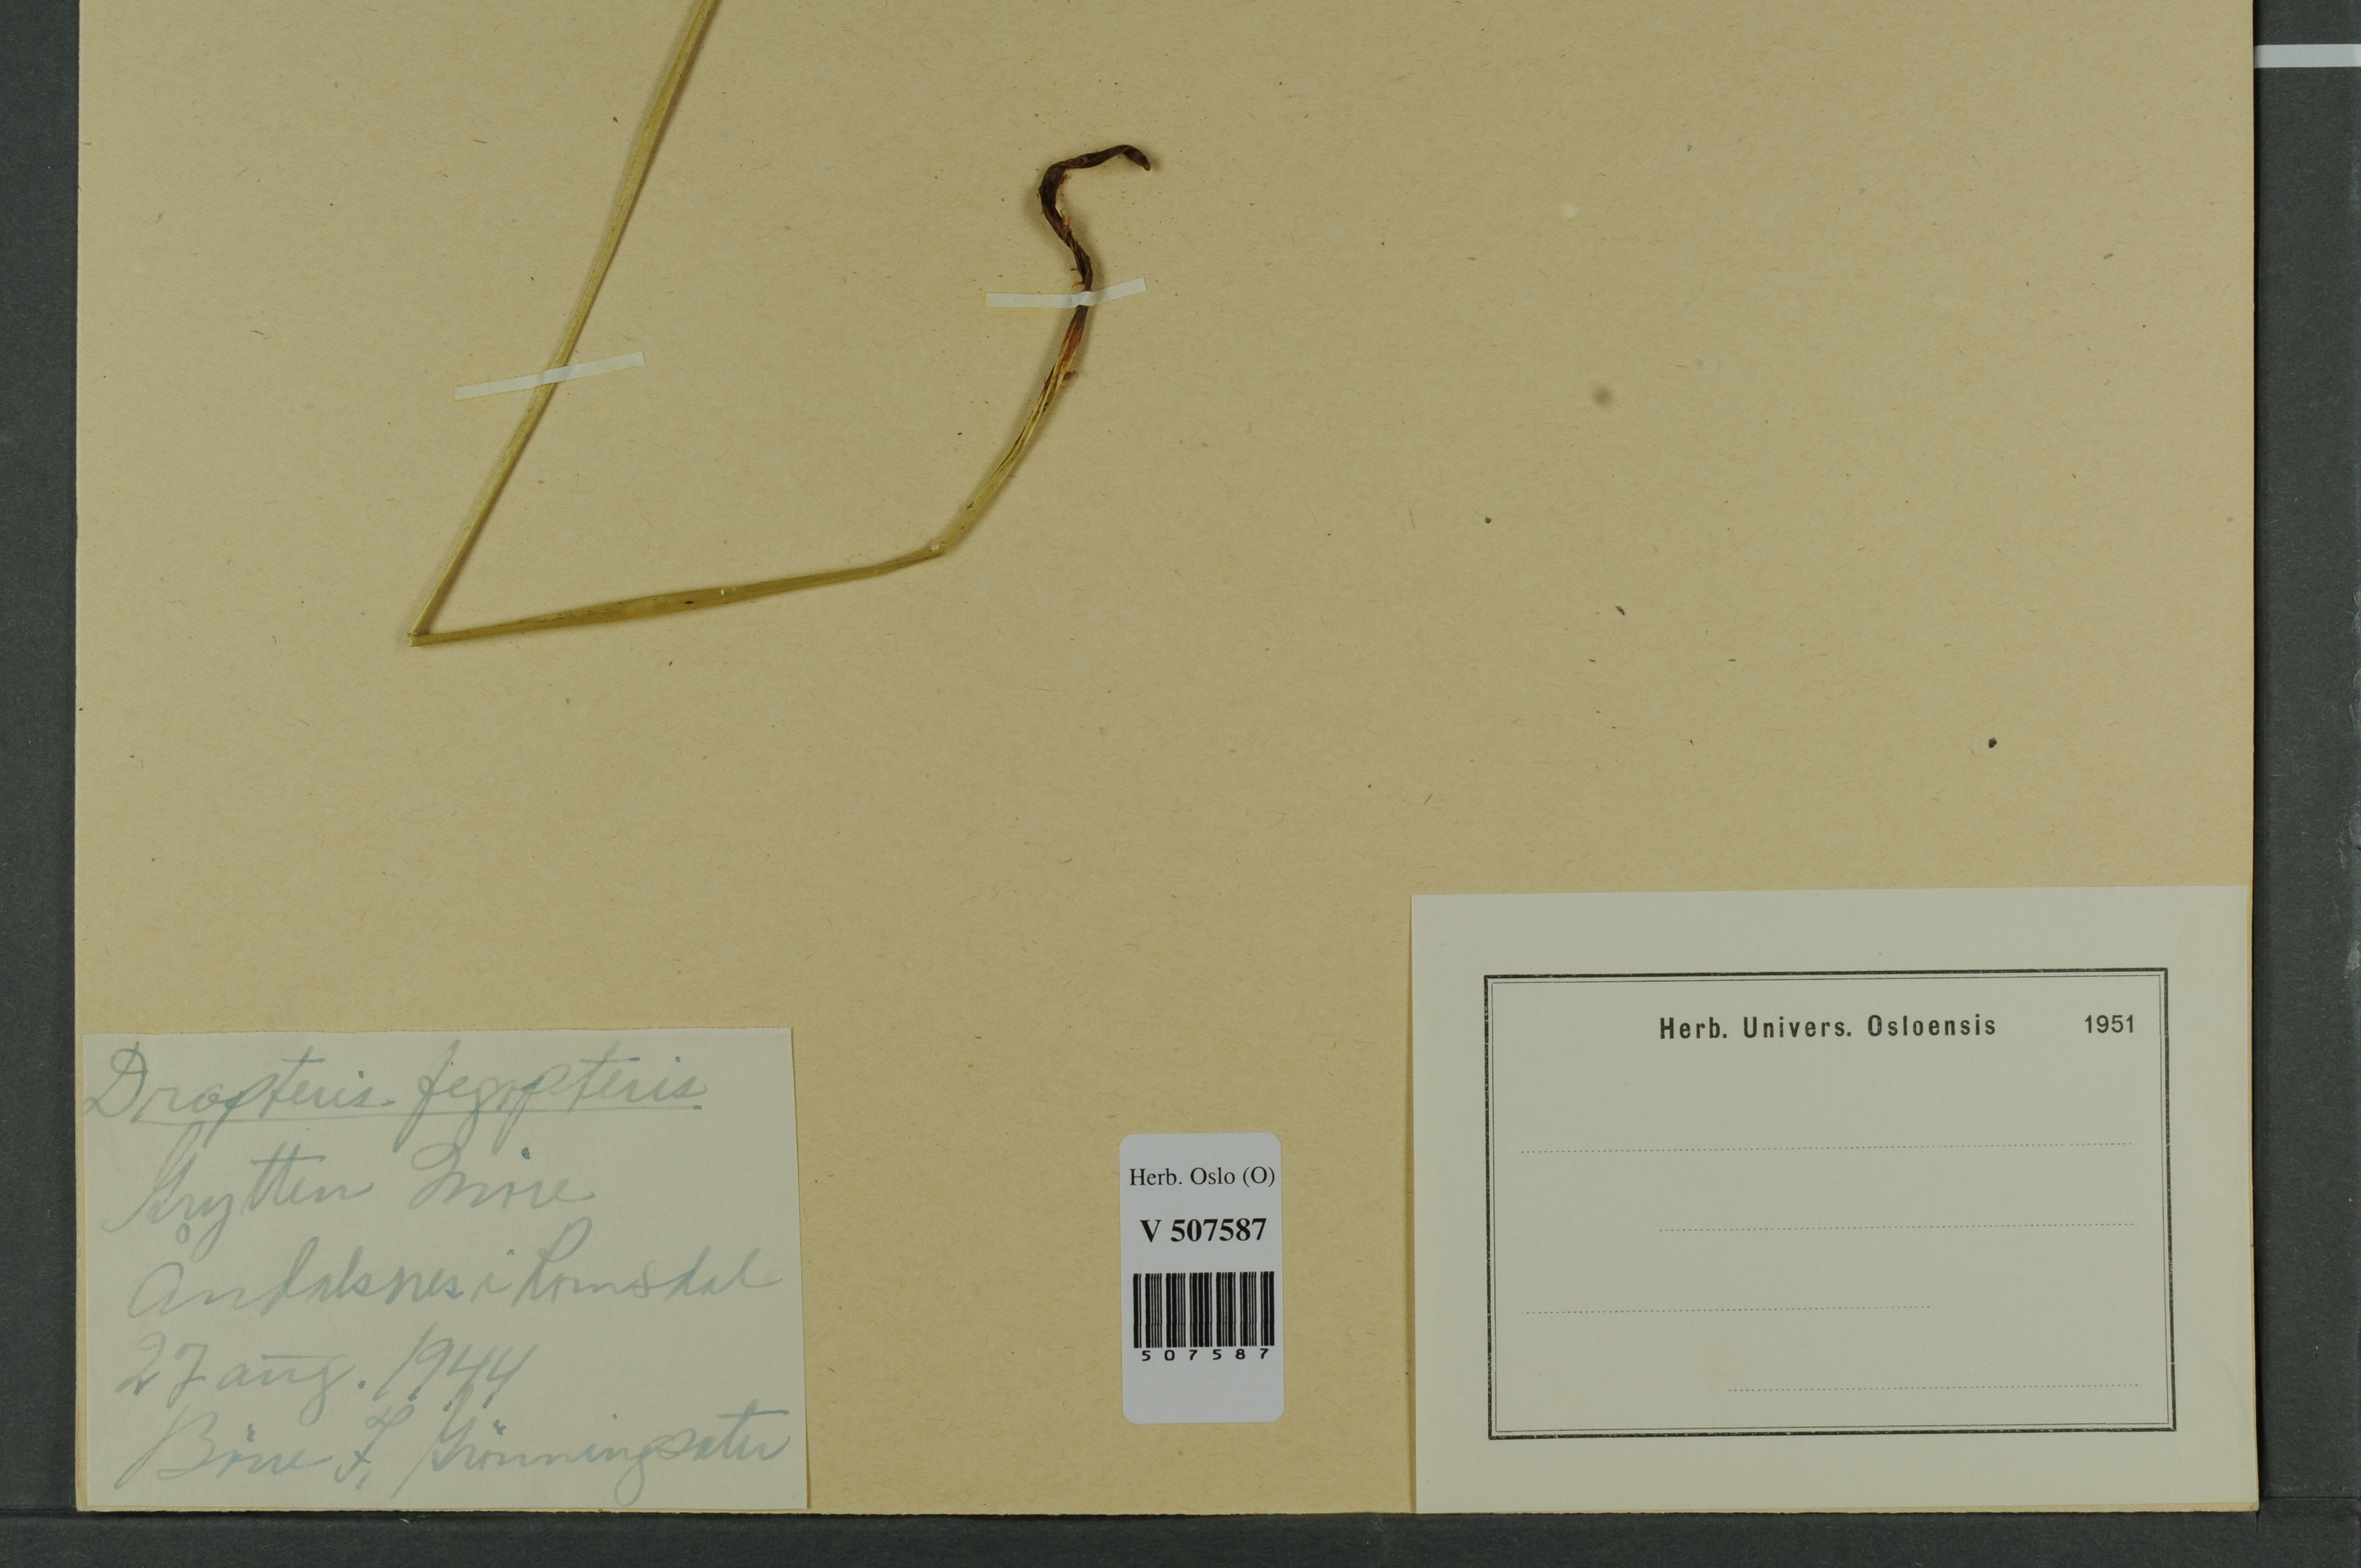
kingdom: Plantae
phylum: Tracheophyta
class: Polypodiopsida
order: Polypodiales
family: Thelypteridaceae
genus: Phegopteris
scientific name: Phegopteris connectilis
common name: Beech fern
